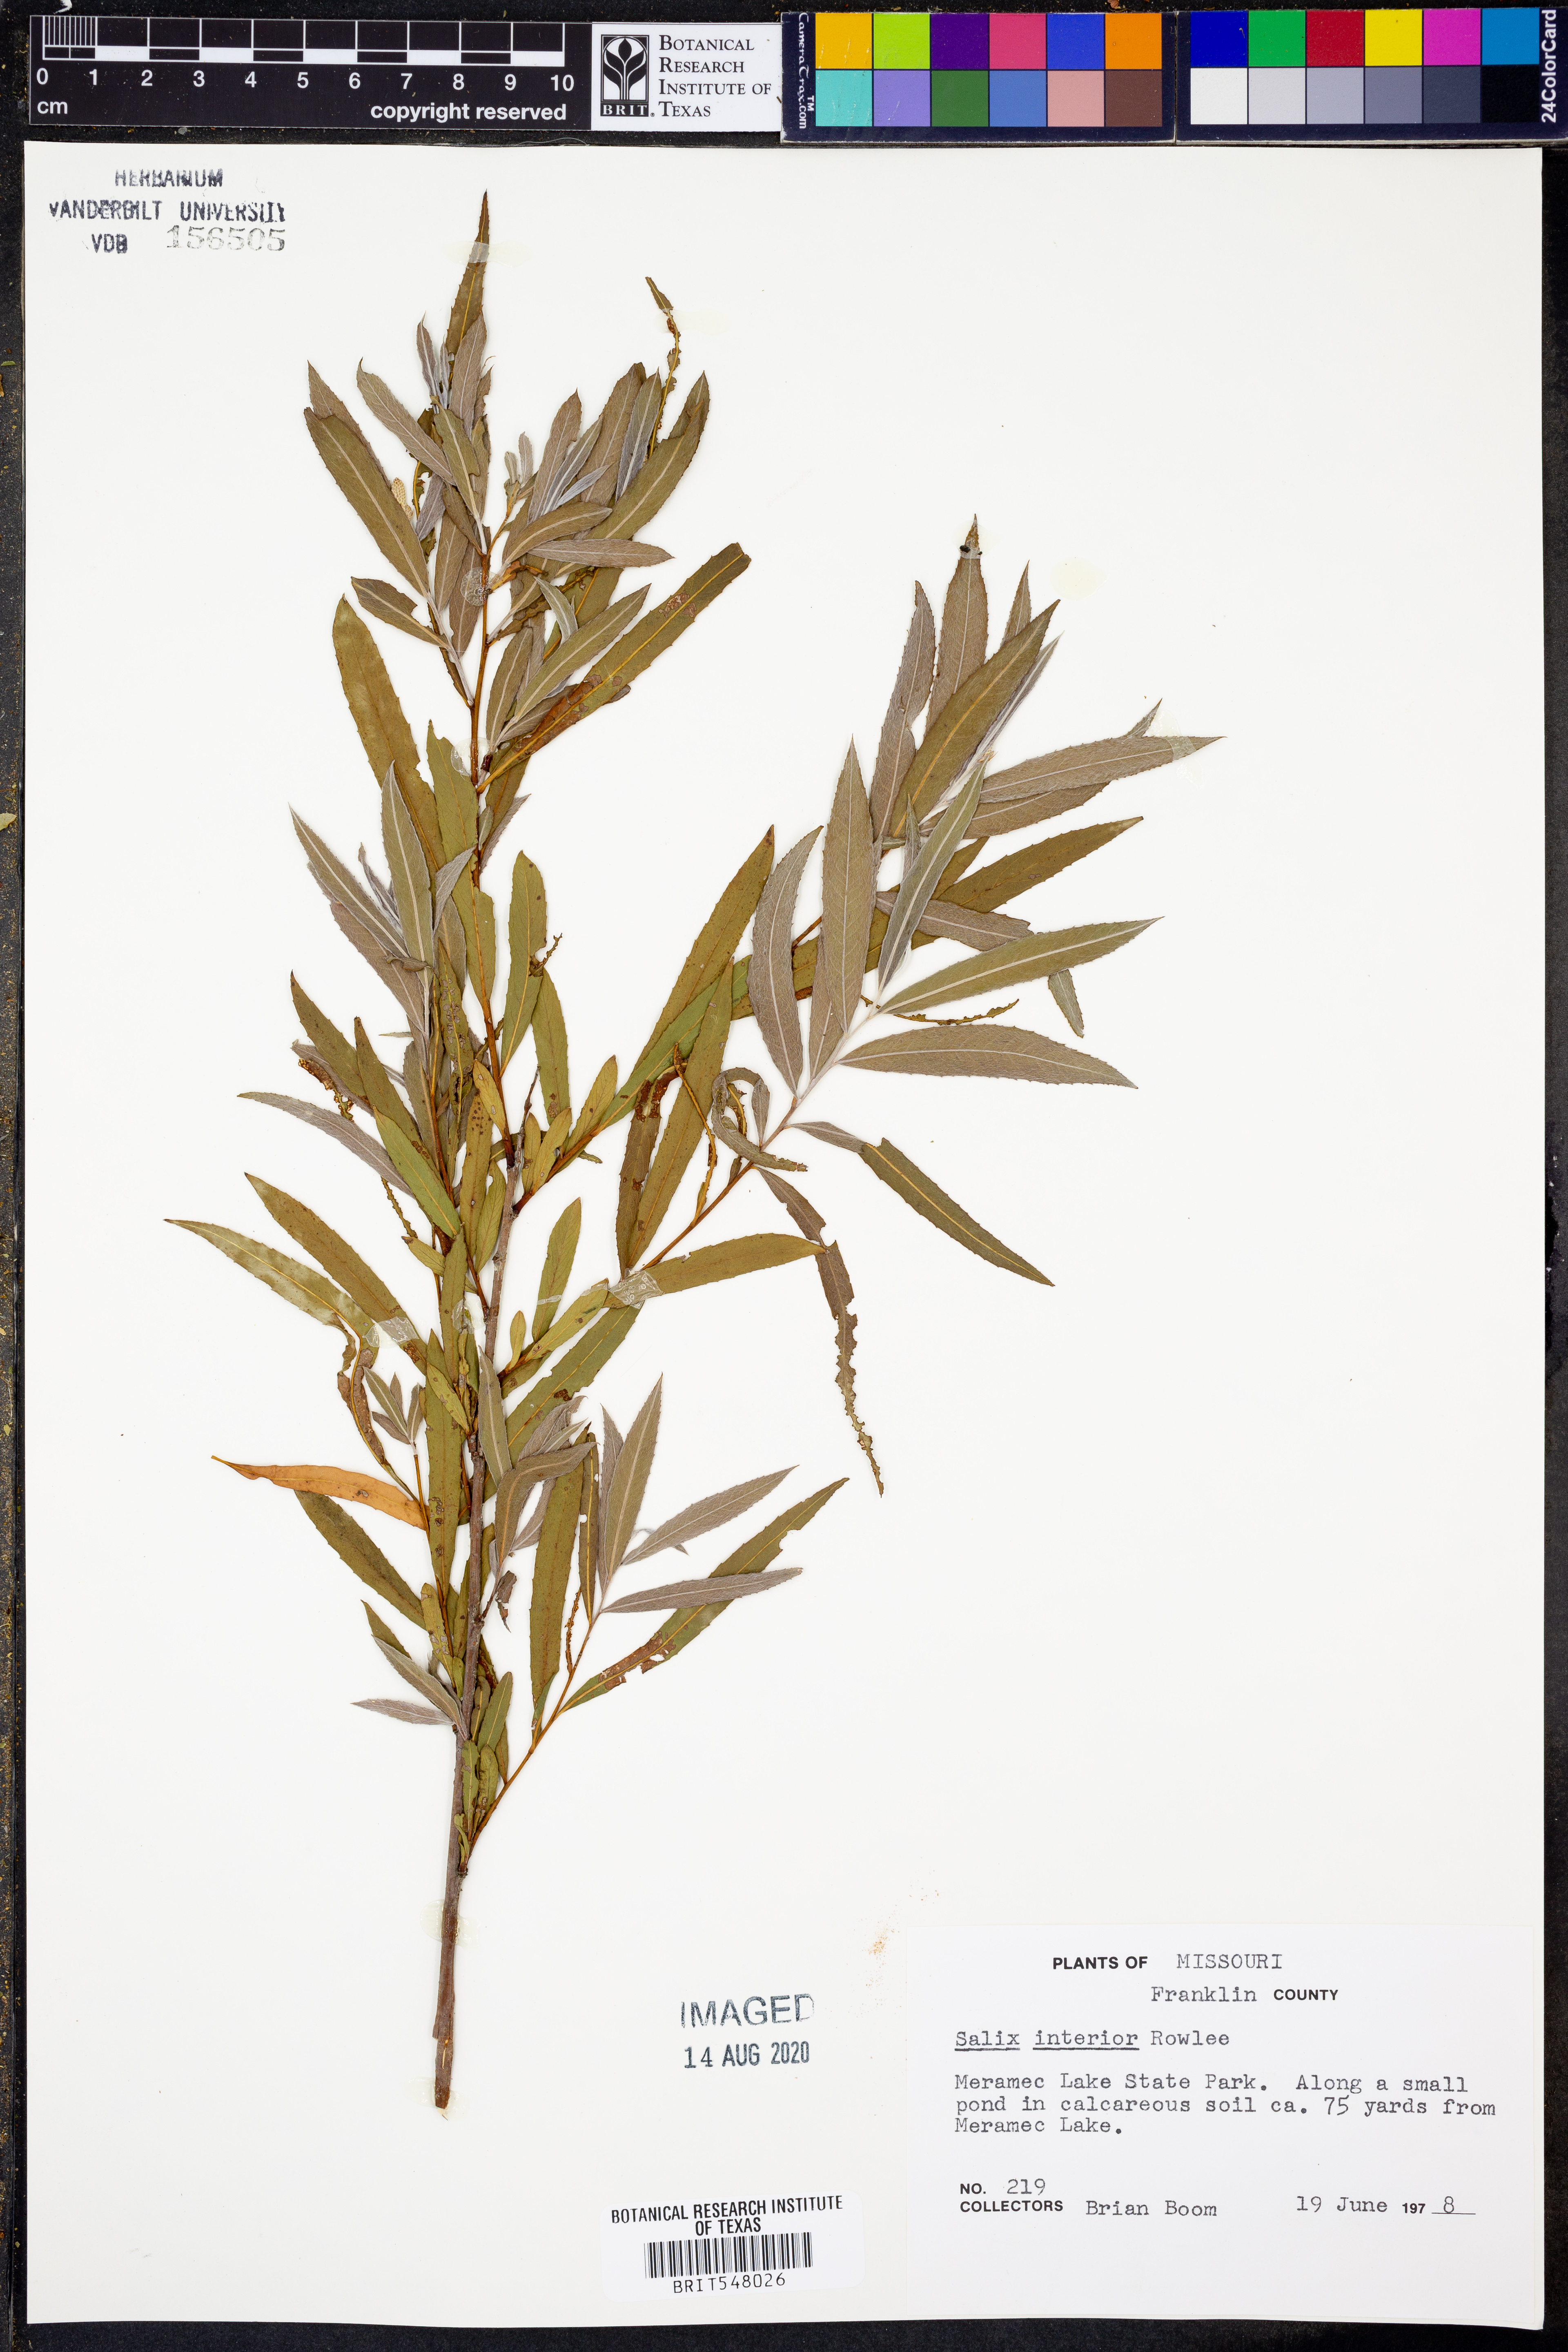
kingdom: Plantae
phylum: Tracheophyta
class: Magnoliopsida
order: Malpighiales
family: Salicaceae
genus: Salix
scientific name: Salix interior
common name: Sandbar willow
